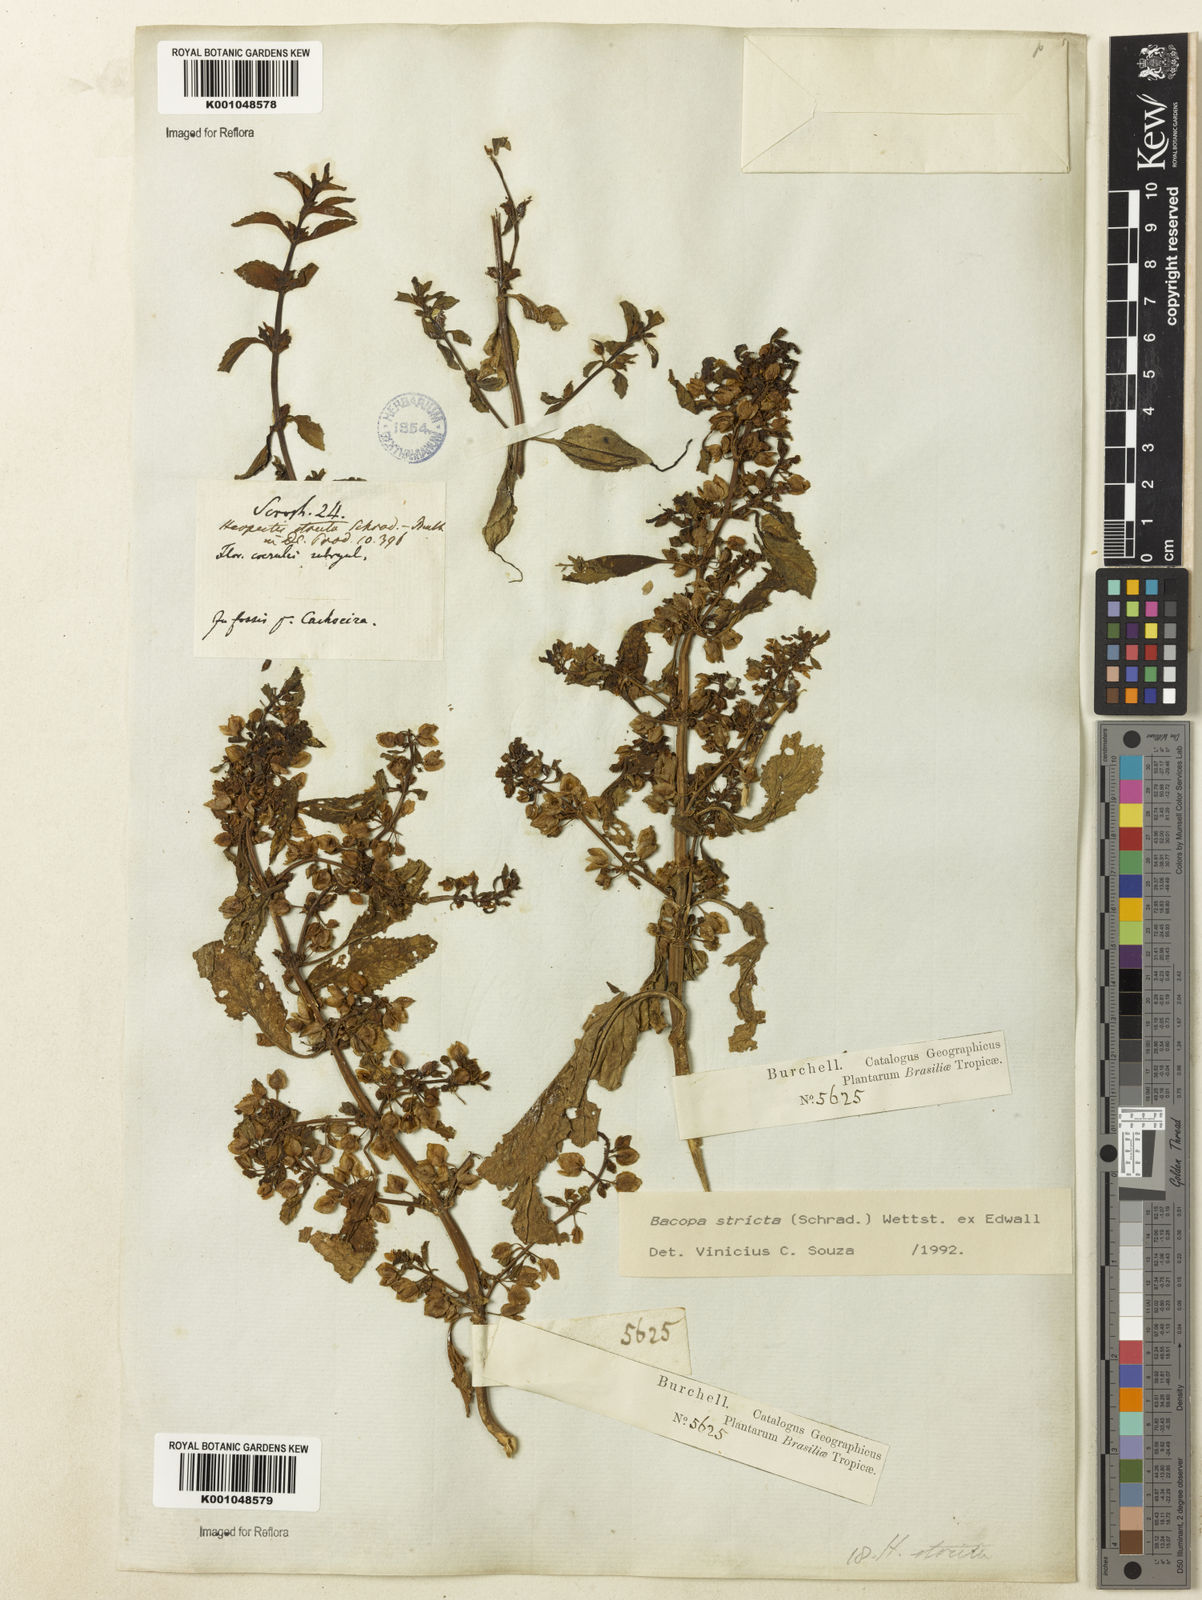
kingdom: Plantae
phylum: Tracheophyta
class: Magnoliopsida
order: Lamiales
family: Plantaginaceae
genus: Bacopa
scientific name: Bacopa stricta
